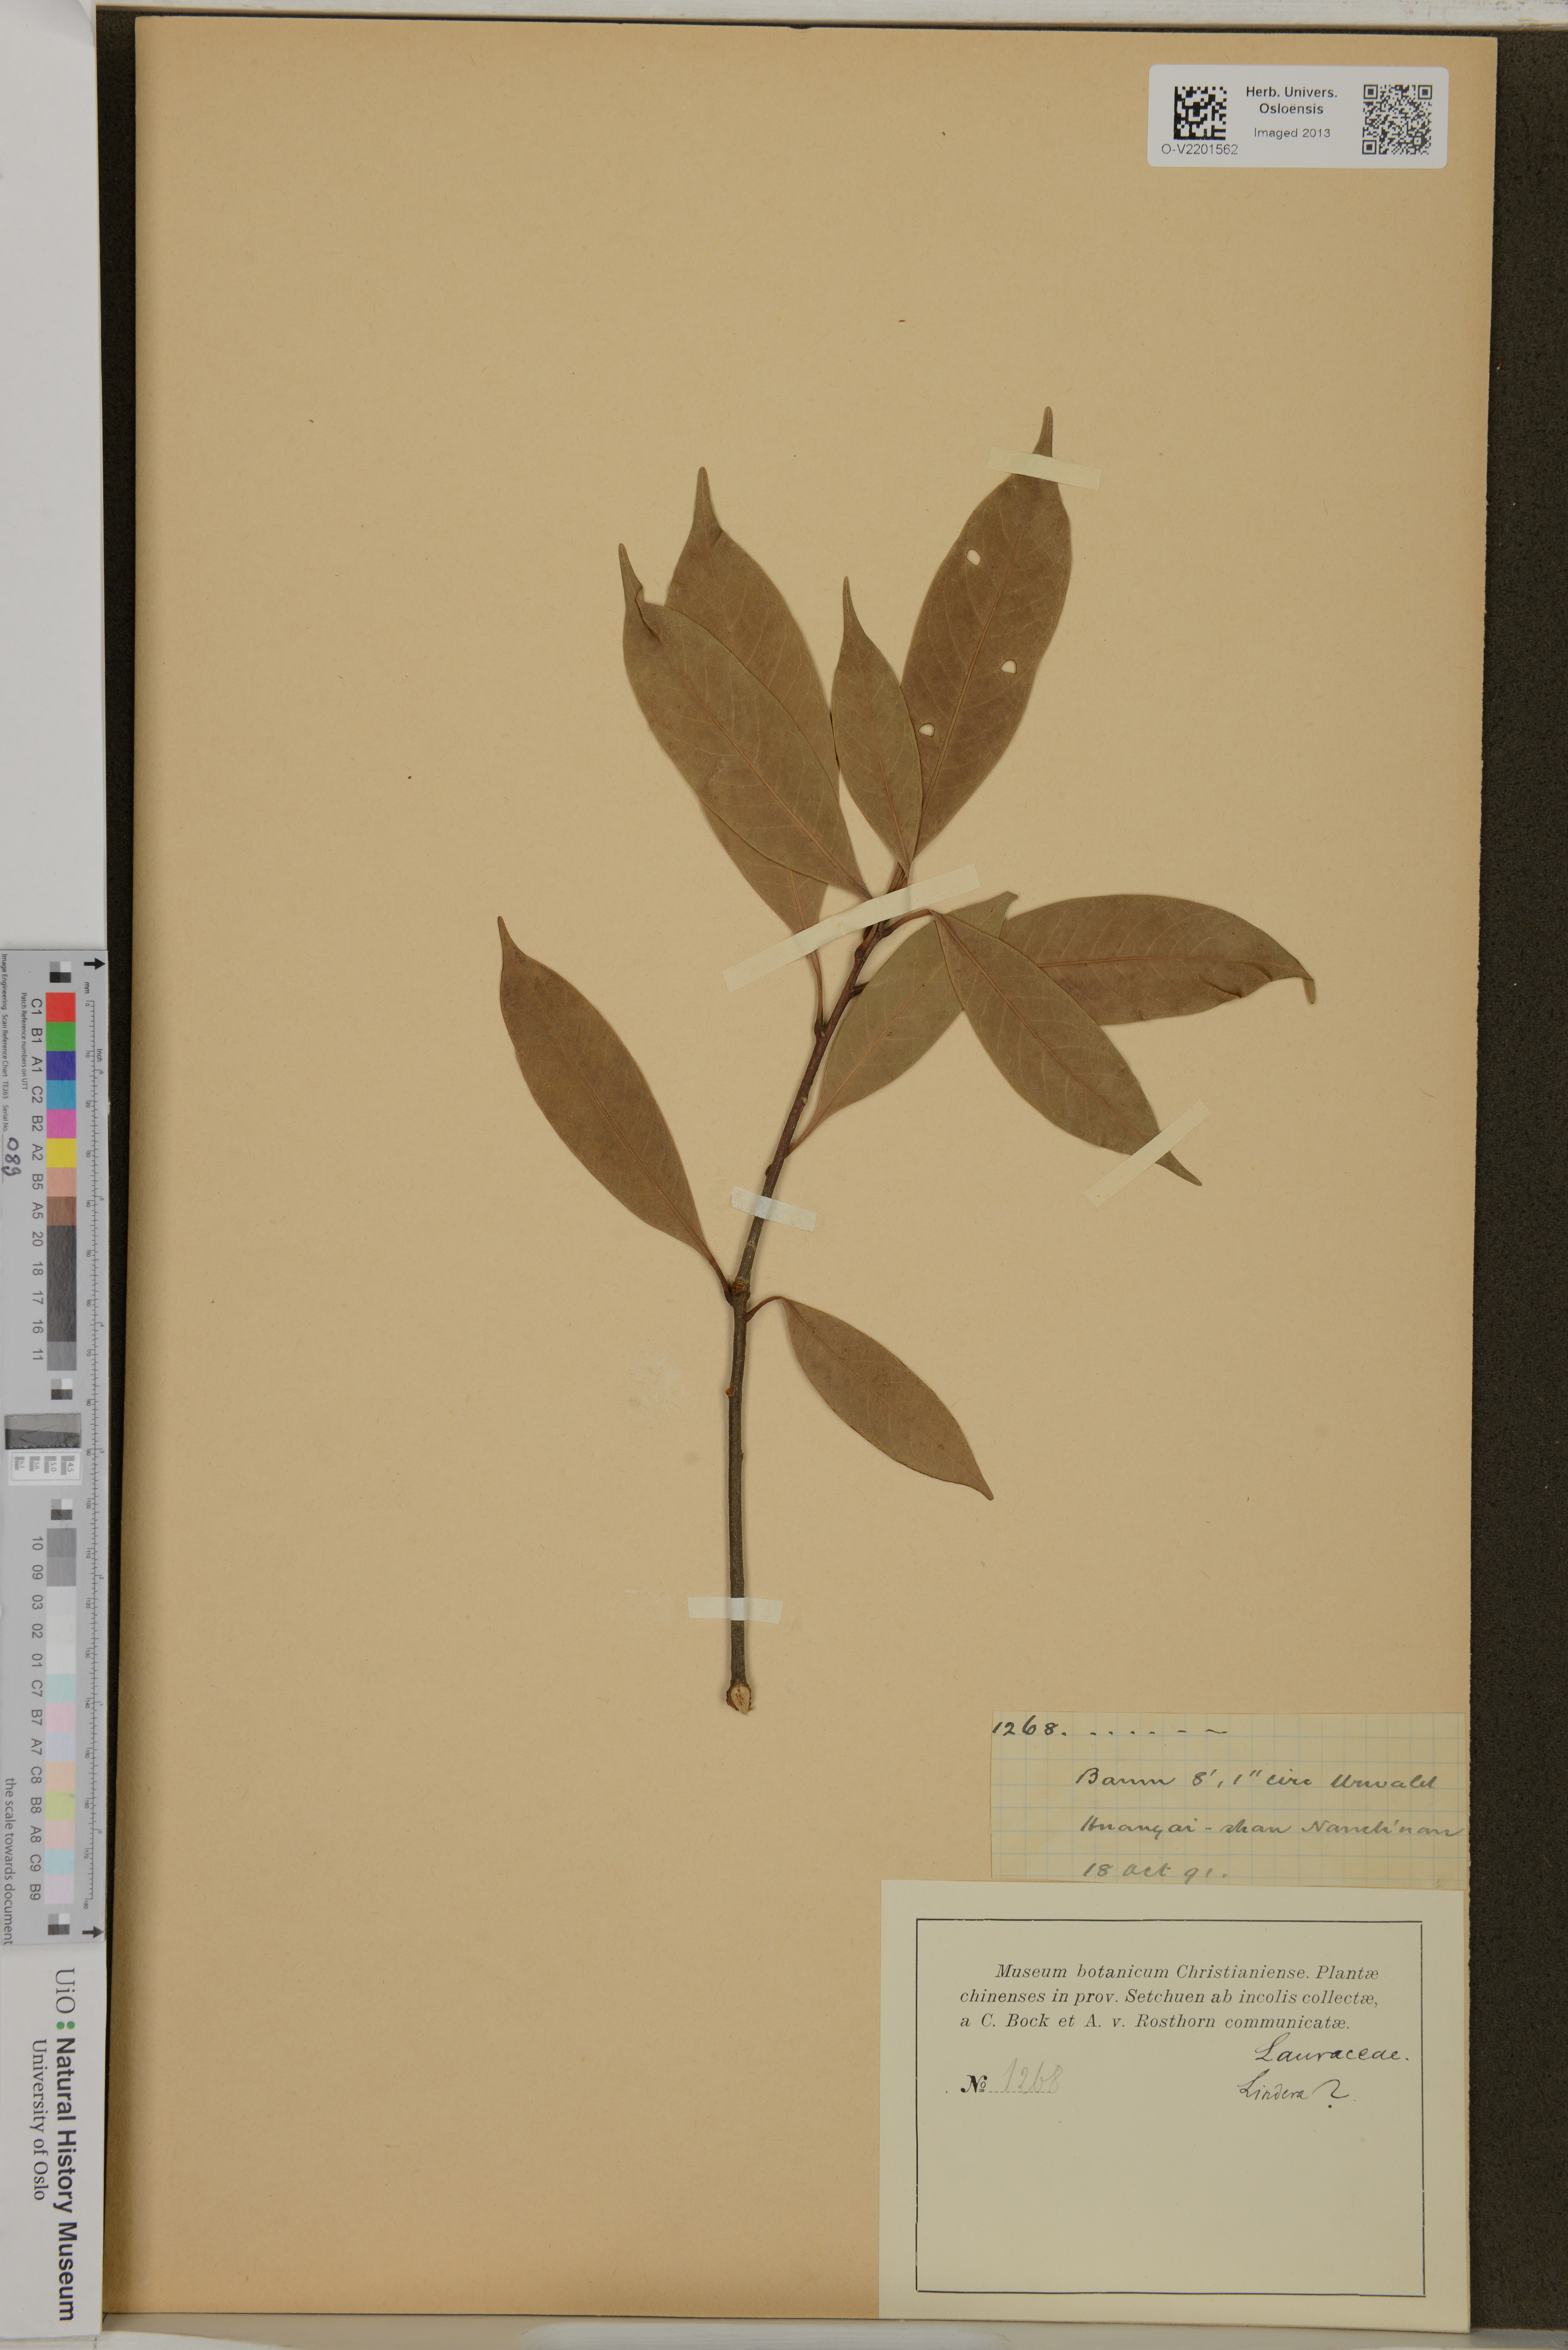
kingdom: Plantae
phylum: Tracheophyta
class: Magnoliopsida
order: Laurales
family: Lauraceae
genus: Lindera
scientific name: Lindera
